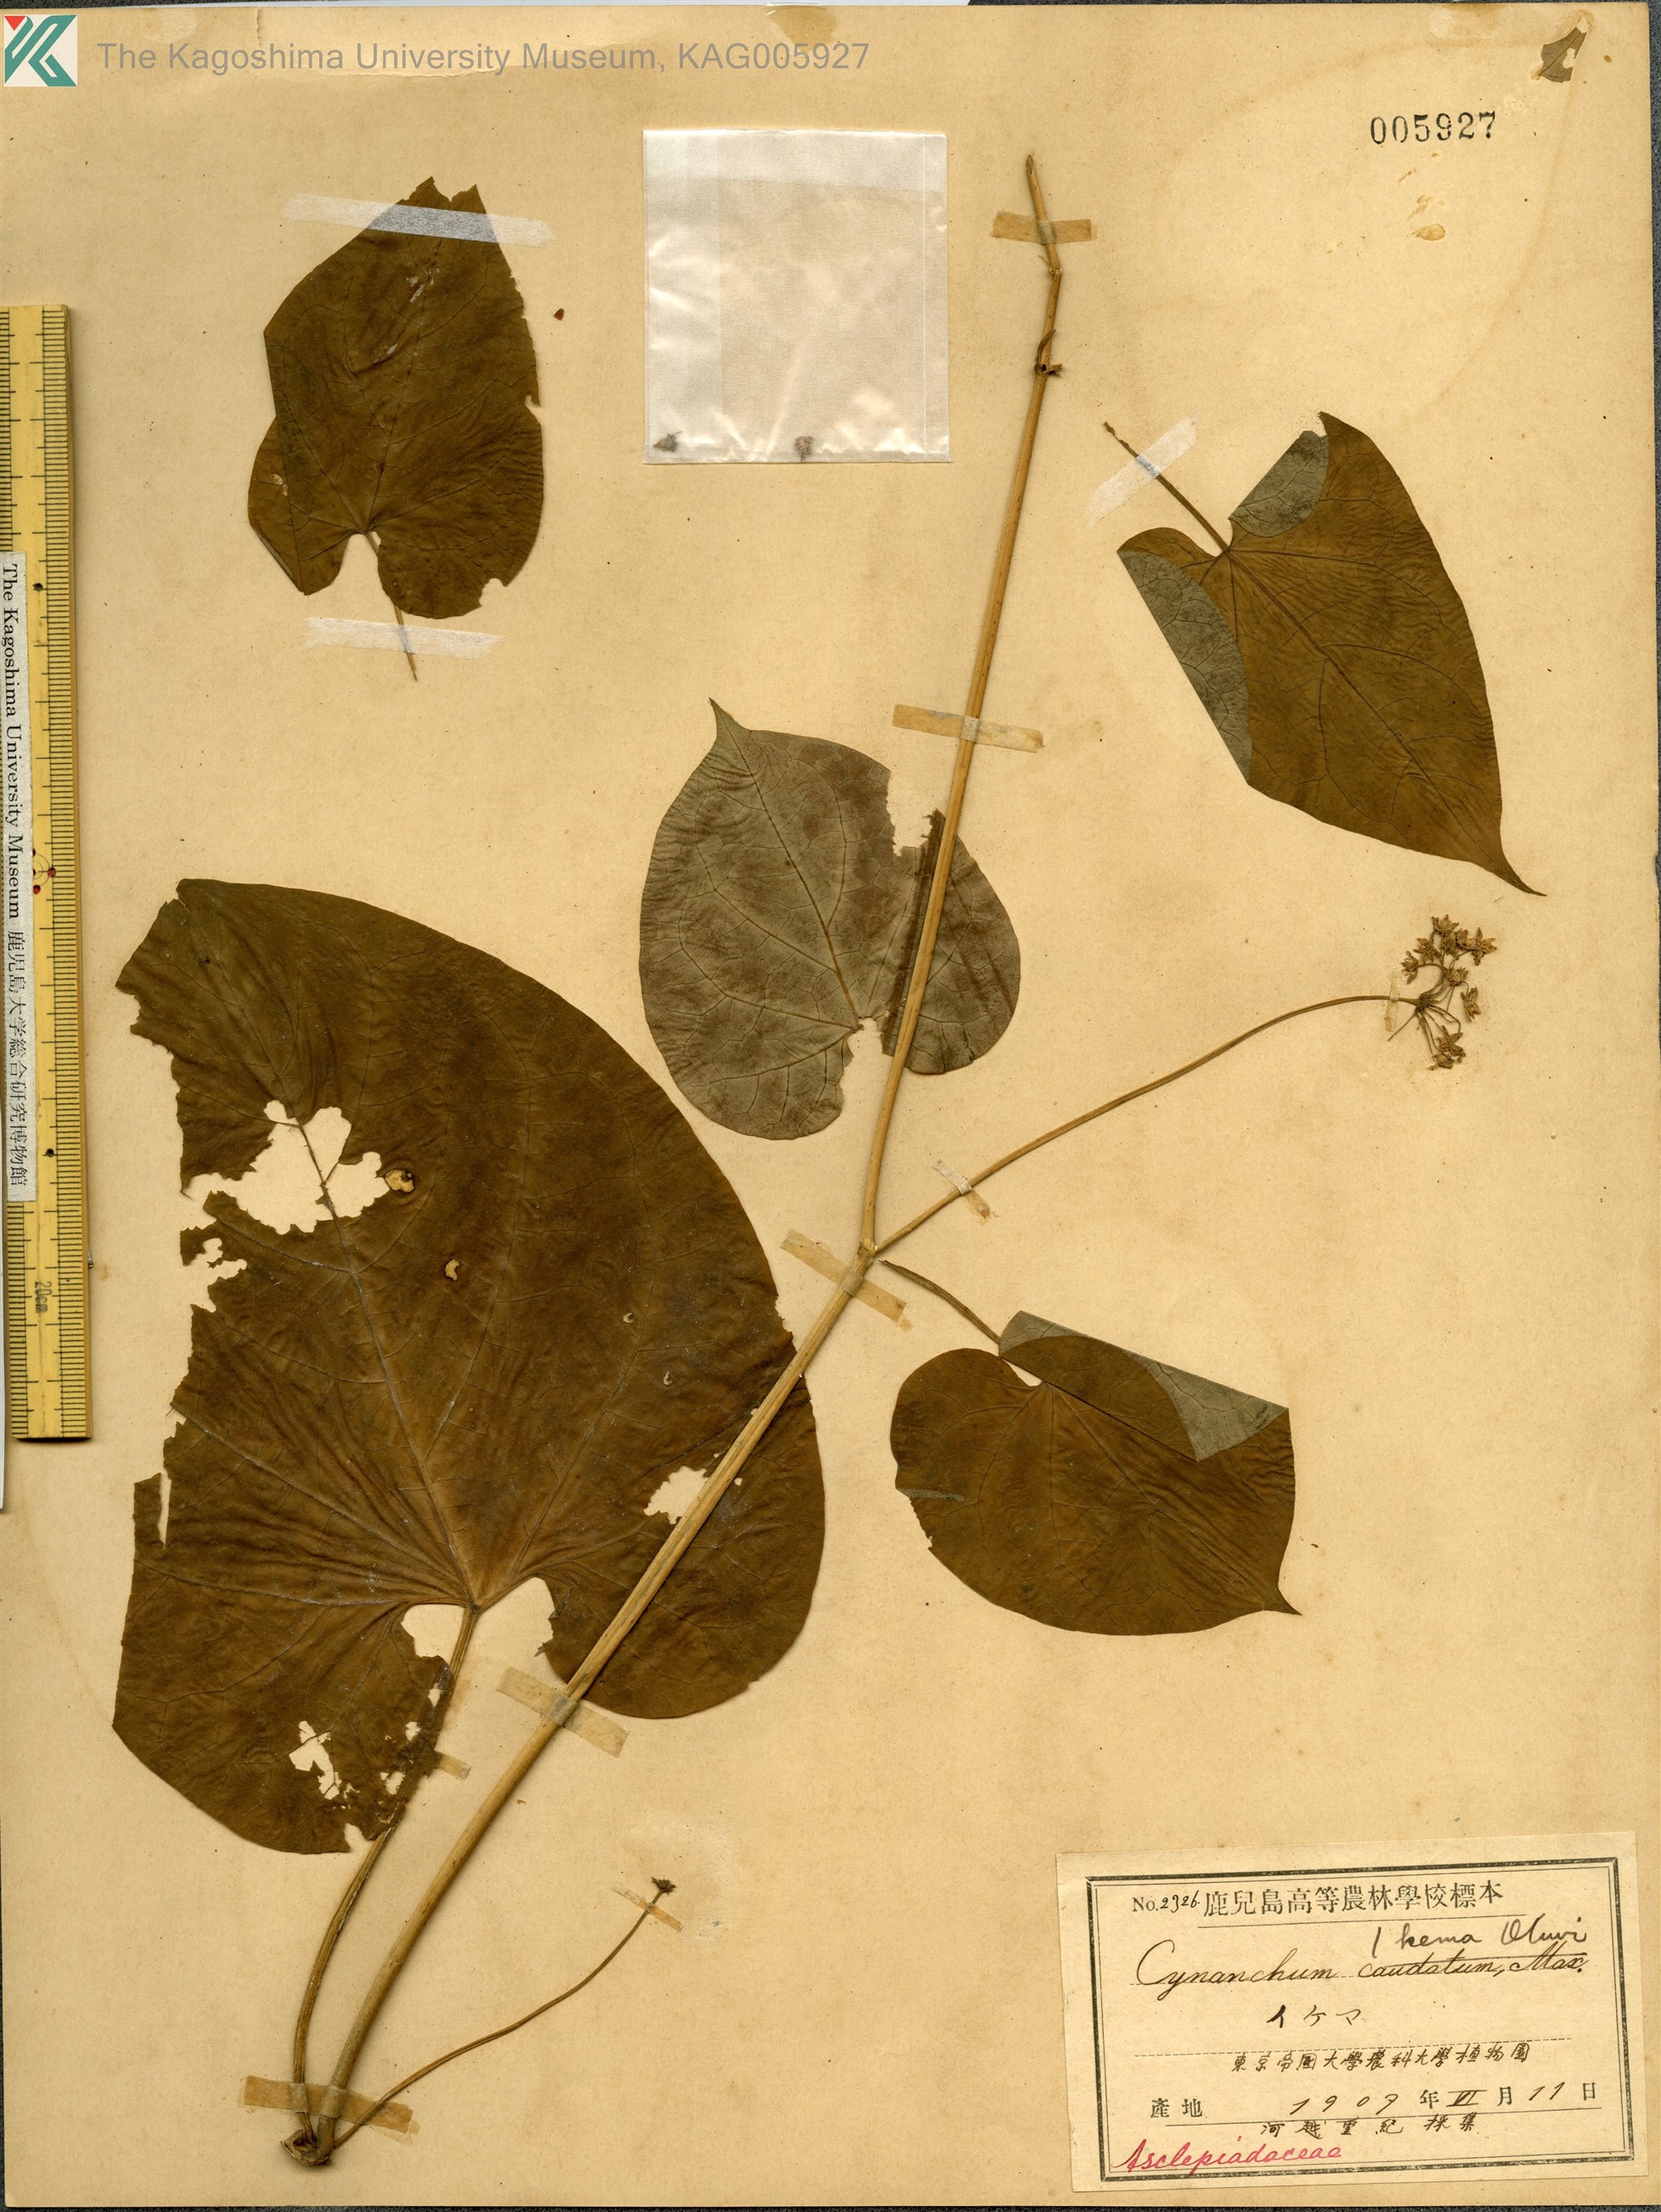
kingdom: Plantae
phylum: Tracheophyta
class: Magnoliopsida
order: Gentianales
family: Apocynaceae
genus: Orthosia
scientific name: Orthosia virgata
